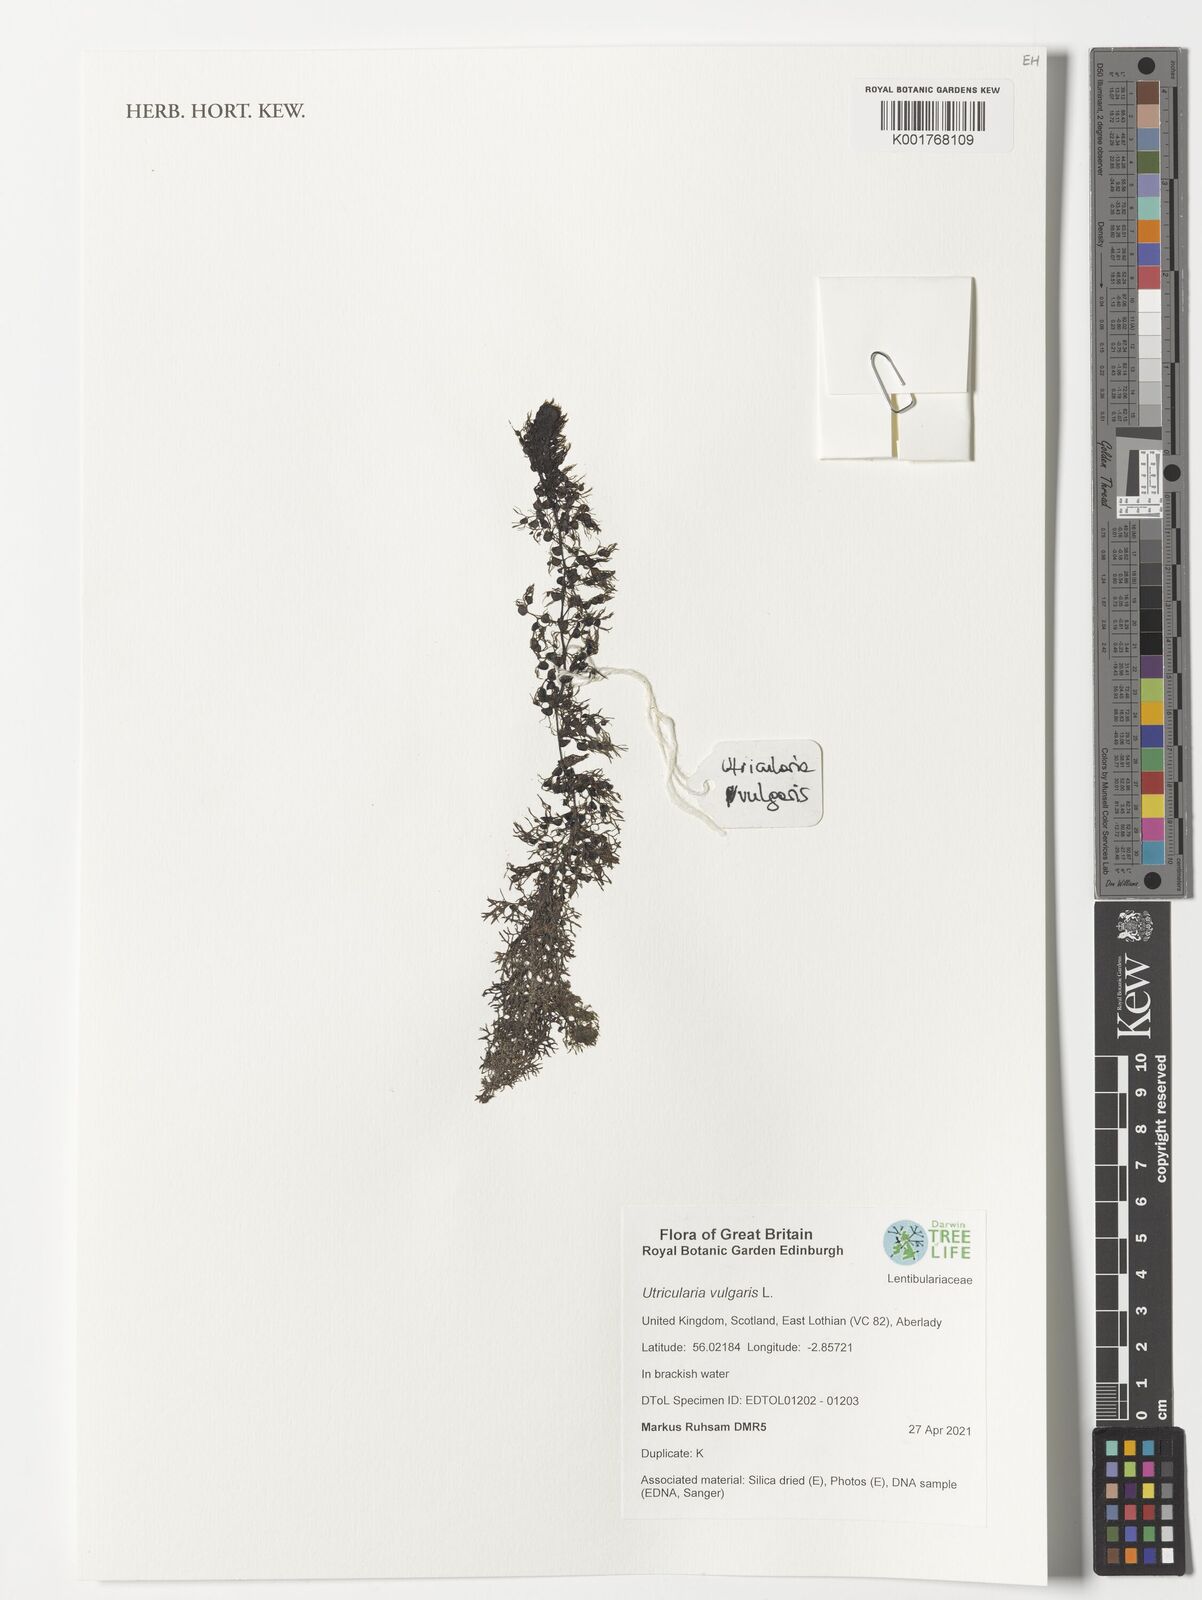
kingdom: Plantae
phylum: Tracheophyta
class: Magnoliopsida
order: Lamiales
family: Lentibulariaceae
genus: Utricularia
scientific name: Utricularia vulgaris
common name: Greater bladderwort
